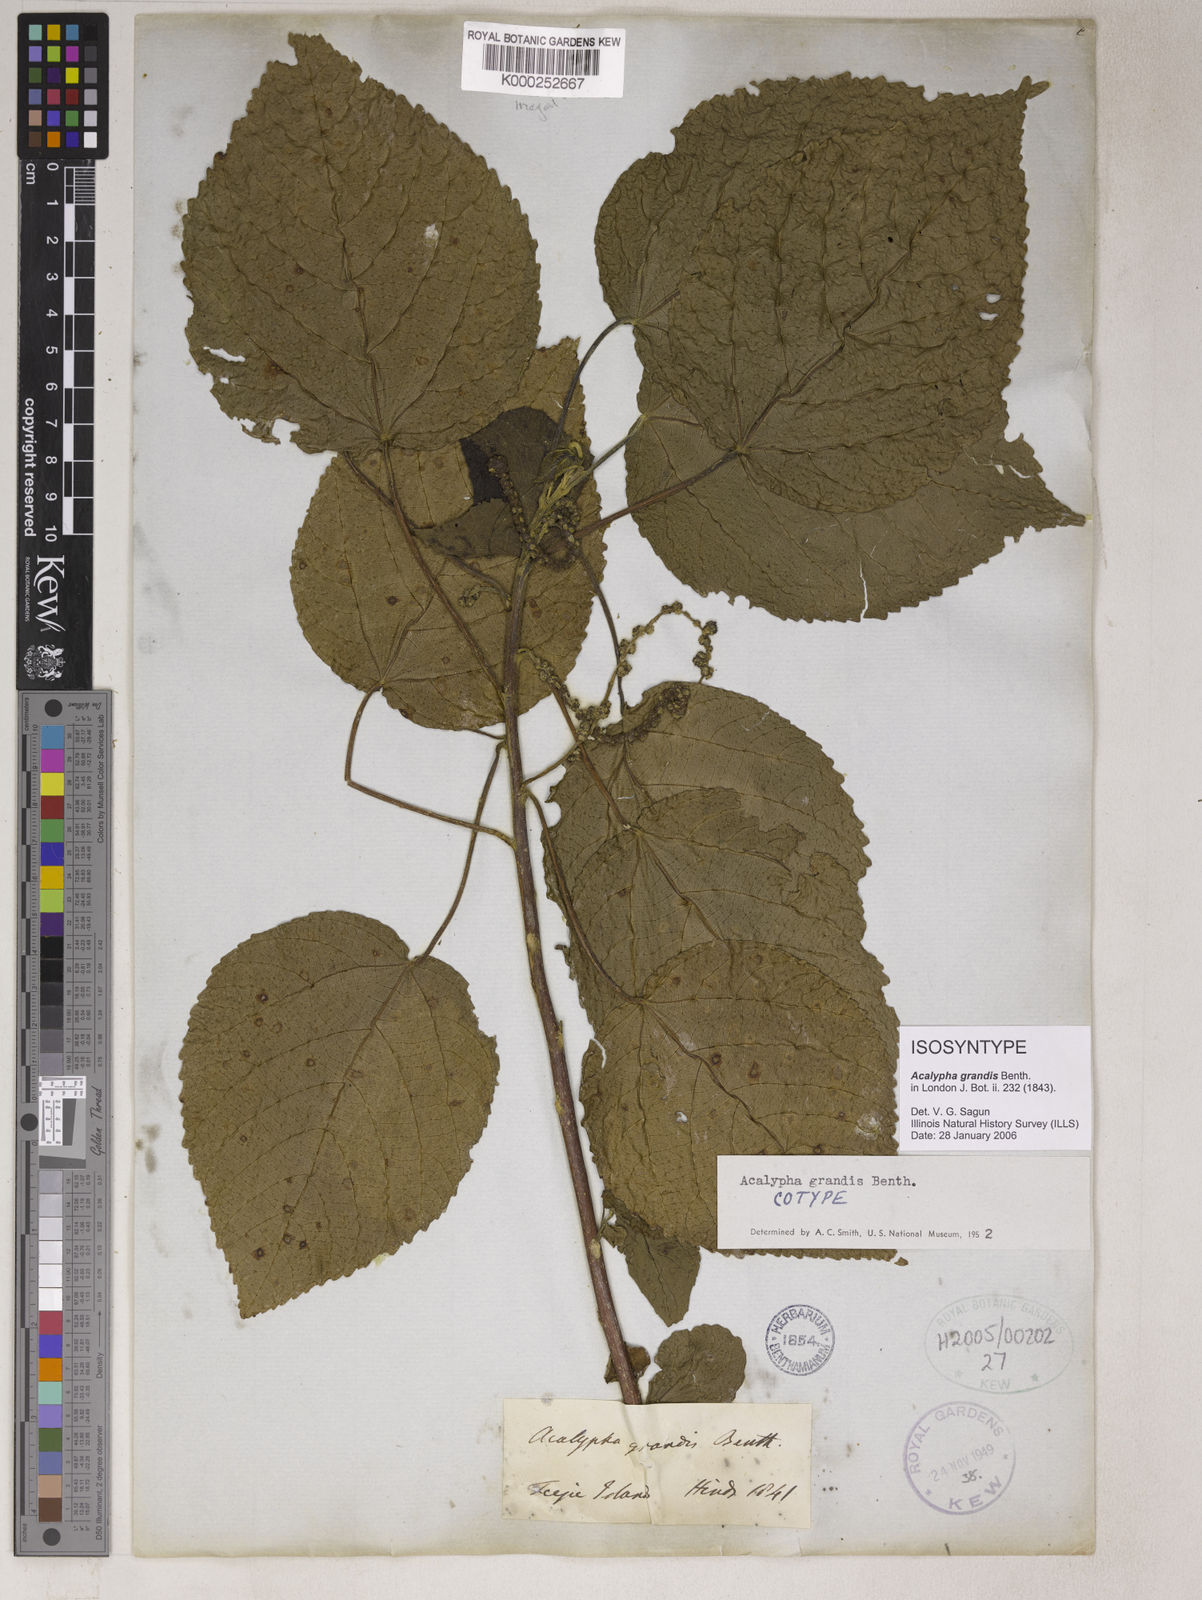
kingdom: Plantae
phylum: Tracheophyta
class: Magnoliopsida
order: Malpighiales
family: Euphorbiaceae
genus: Acalypha
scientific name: Acalypha grandis
